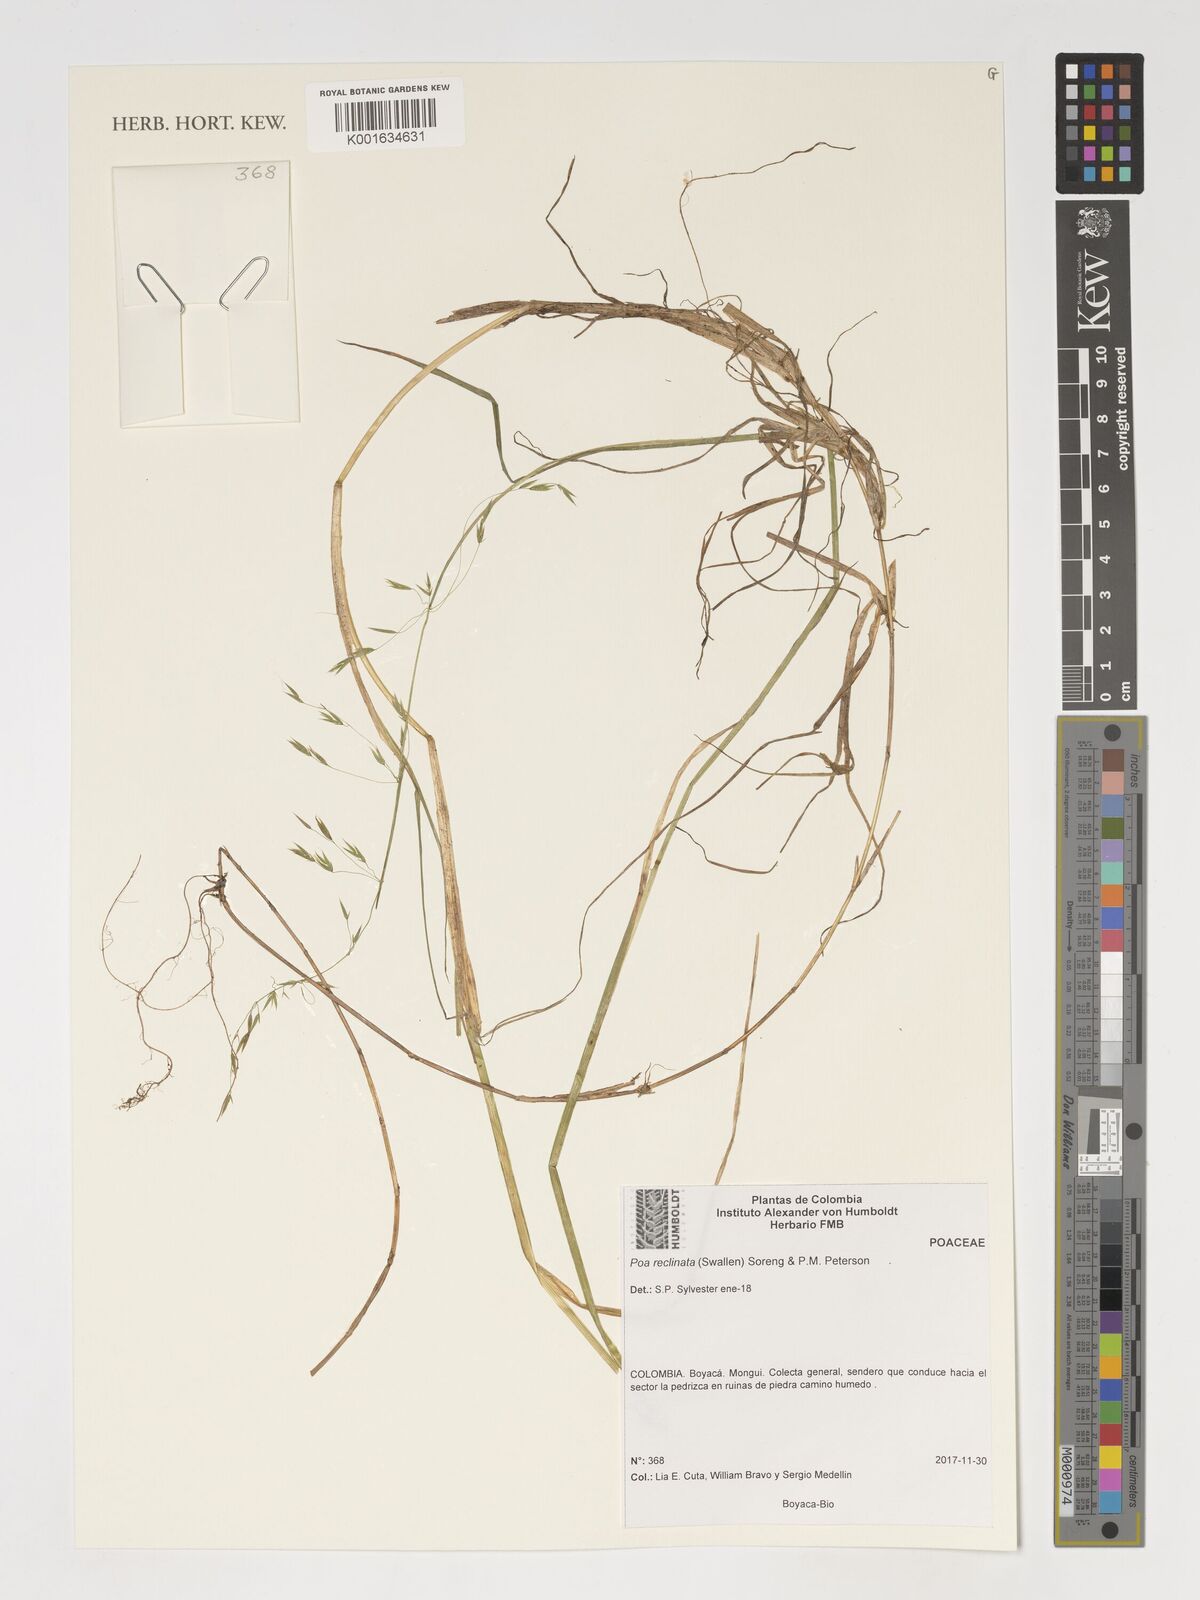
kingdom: Plantae
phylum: Tracheophyta
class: Liliopsida
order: Poales
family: Poaceae
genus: Poa
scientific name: Poa reclinata
